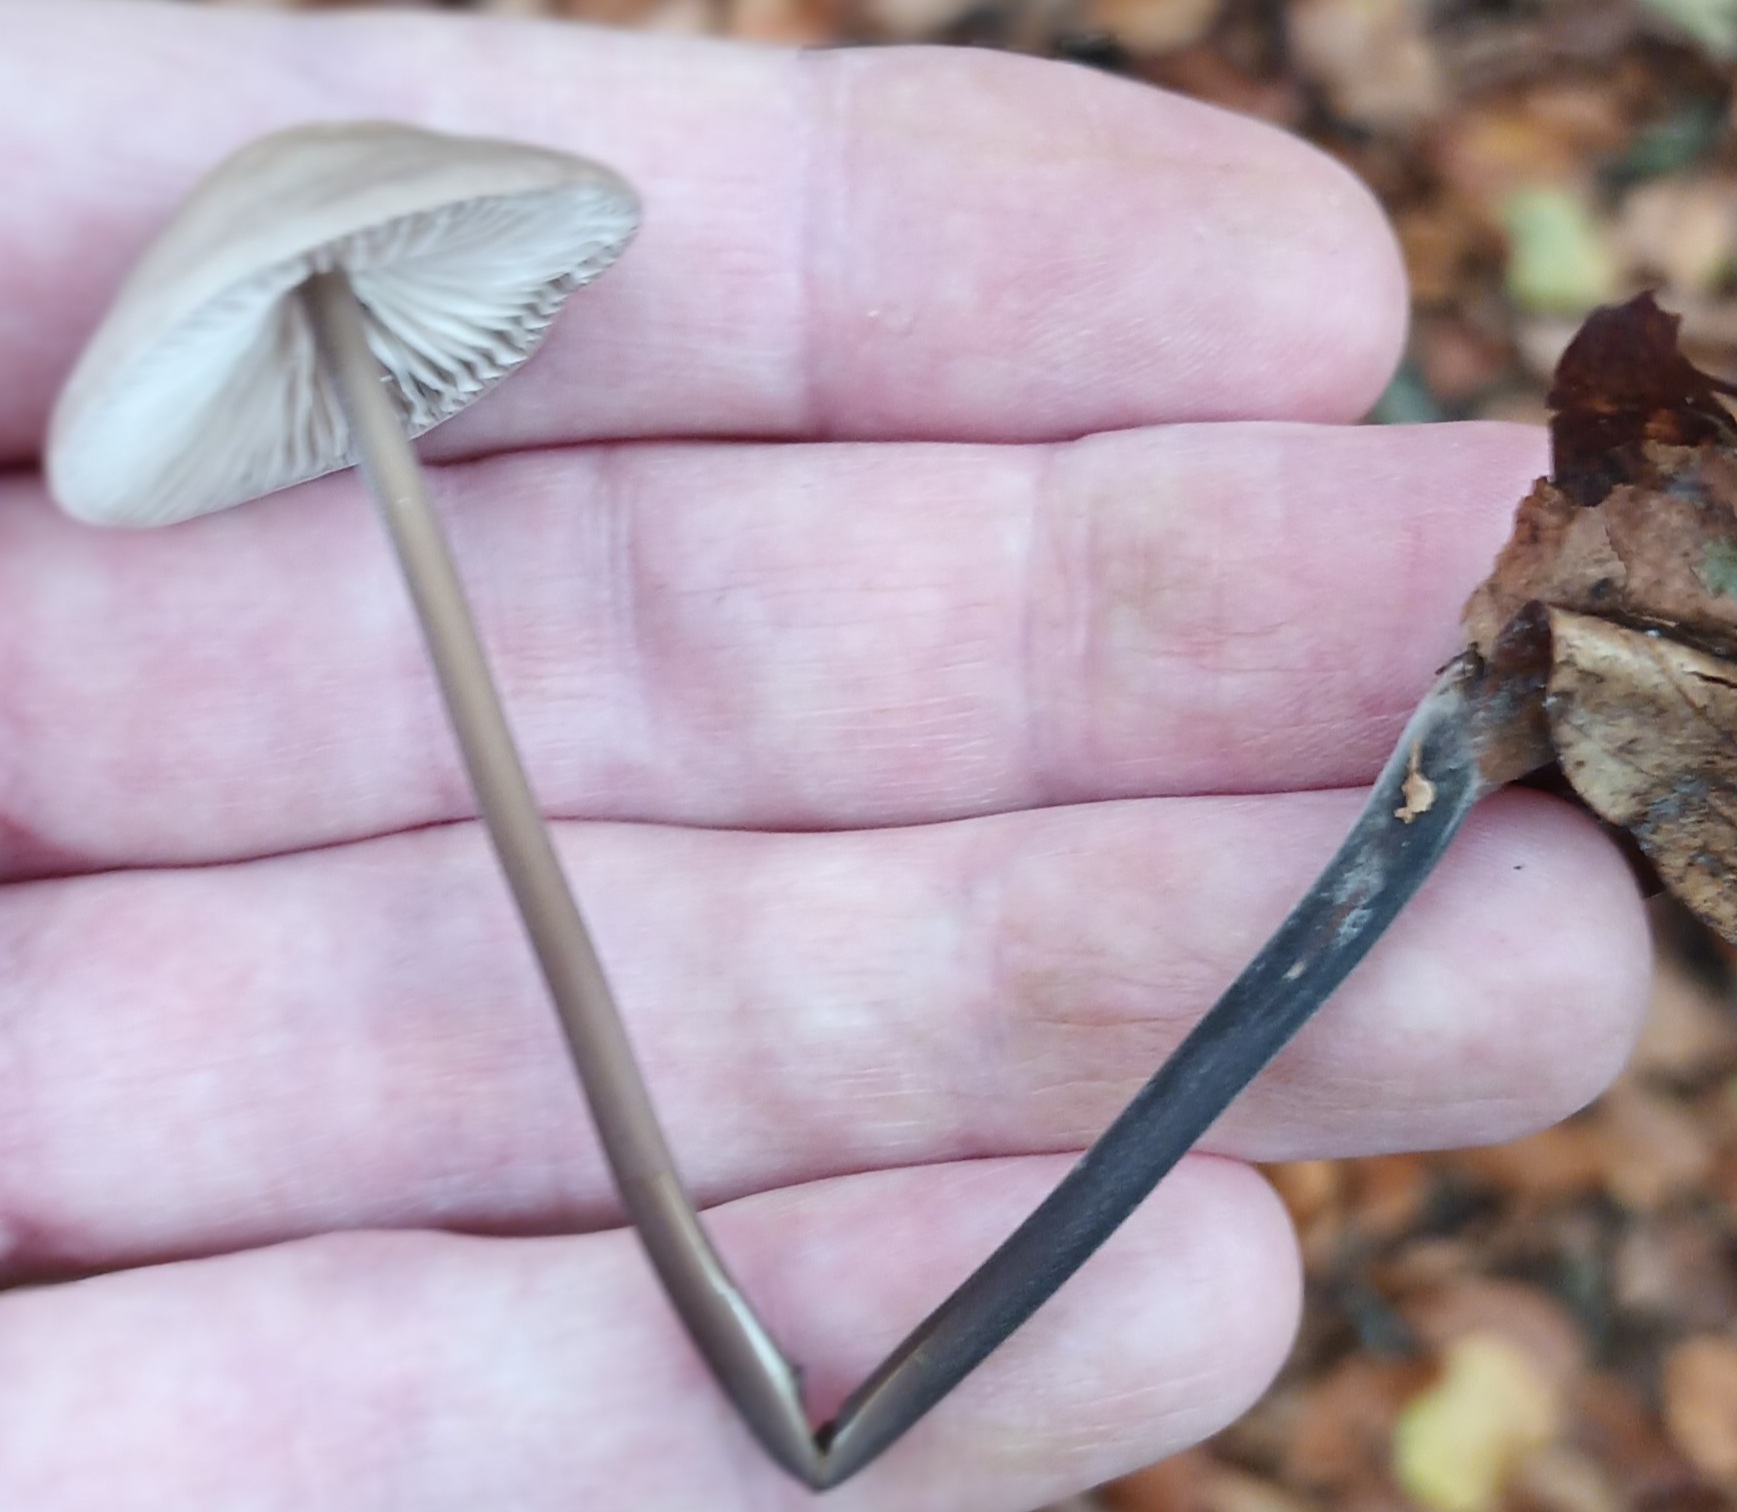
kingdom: Fungi
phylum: Basidiomycota
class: Agaricomycetes
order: Agaricales
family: Omphalotaceae
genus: Mycetinis
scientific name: Mycetinis alliaceus
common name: Stor løghat
